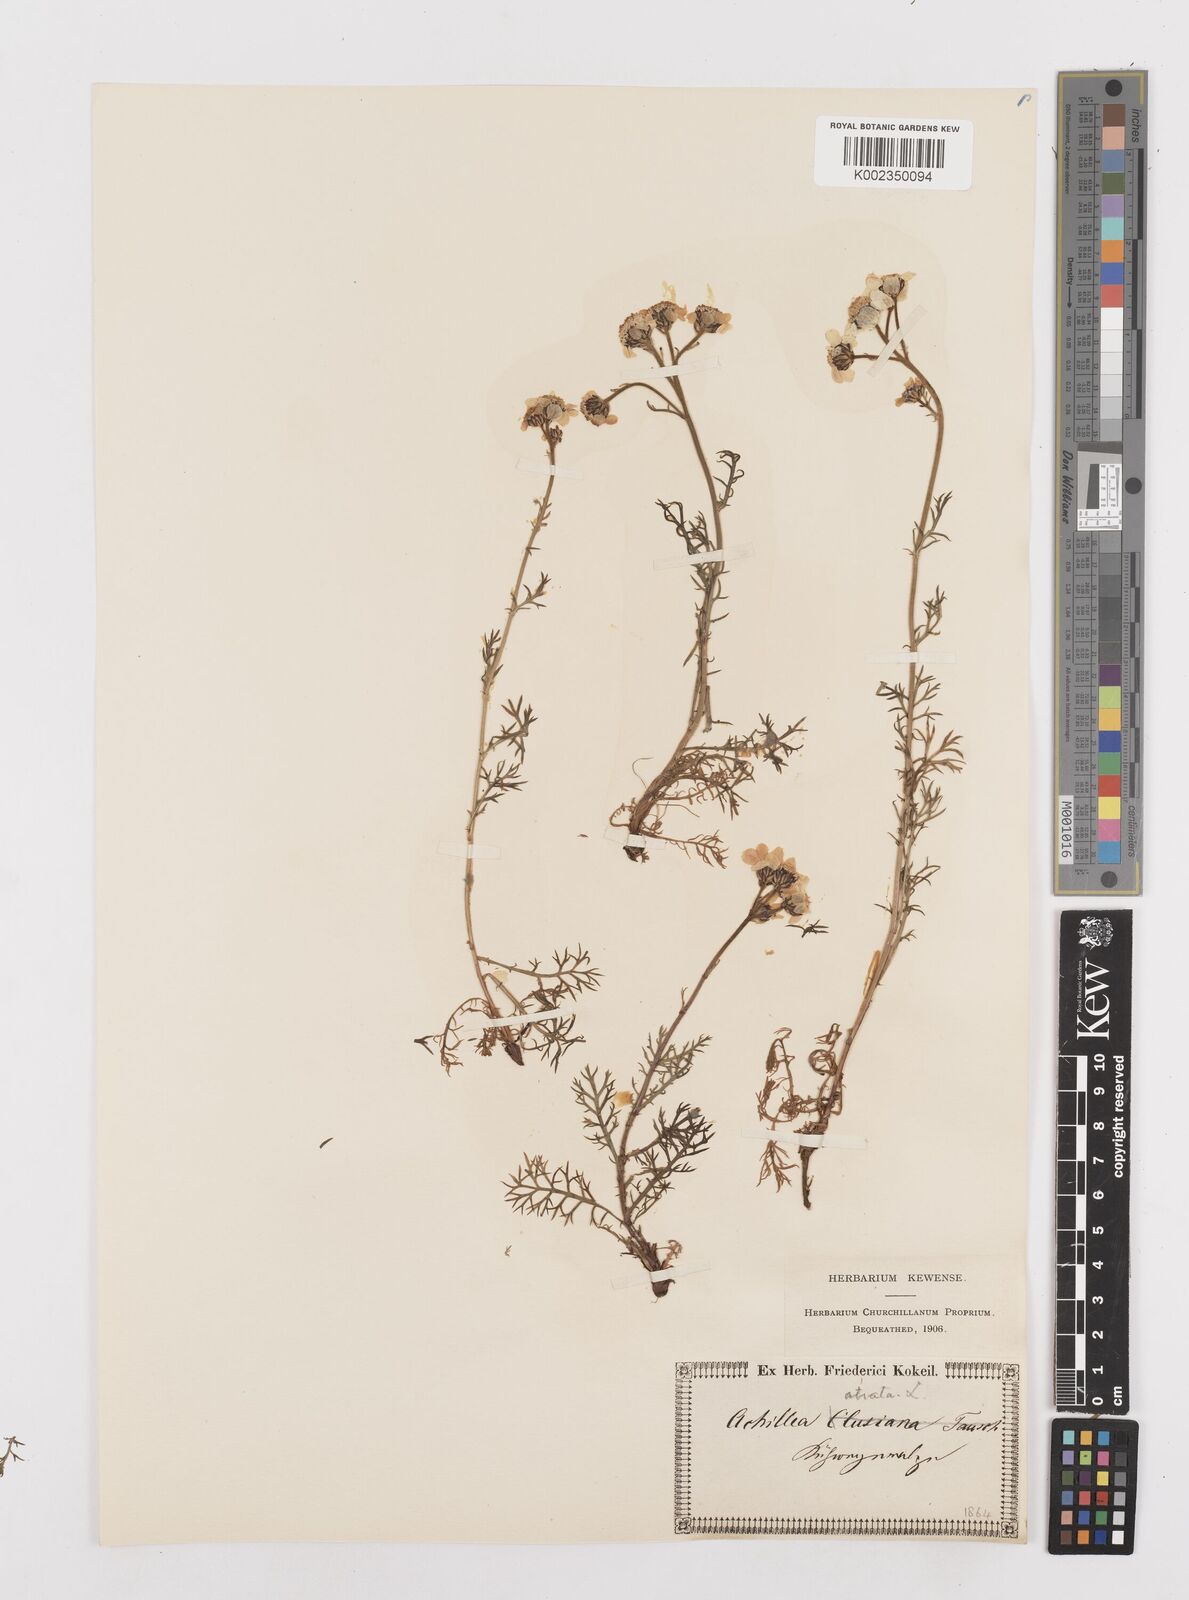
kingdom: Plantae
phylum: Tracheophyta
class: Magnoliopsida
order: Asterales
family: Asteraceae
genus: Achillea
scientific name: Achillea atrata
